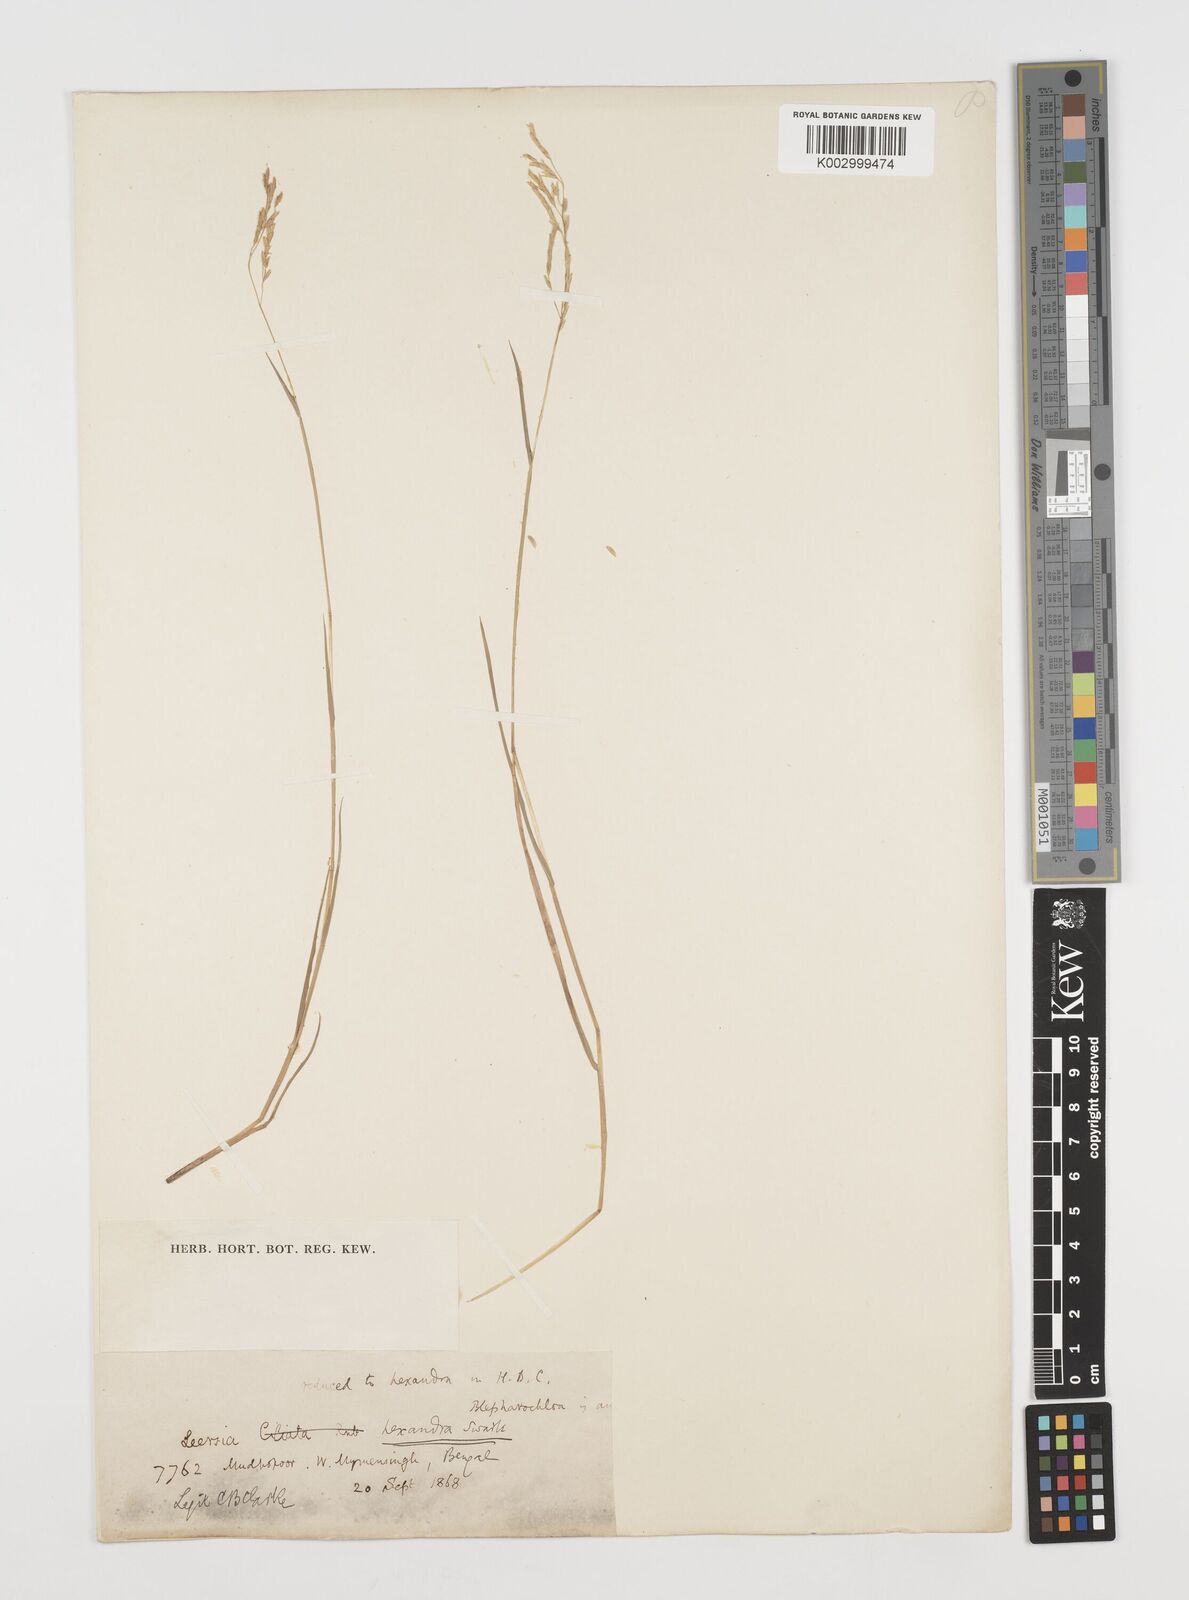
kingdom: Plantae
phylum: Tracheophyta
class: Liliopsida
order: Poales
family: Poaceae
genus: Leersia
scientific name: Leersia hexandra
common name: Southern cut grass
